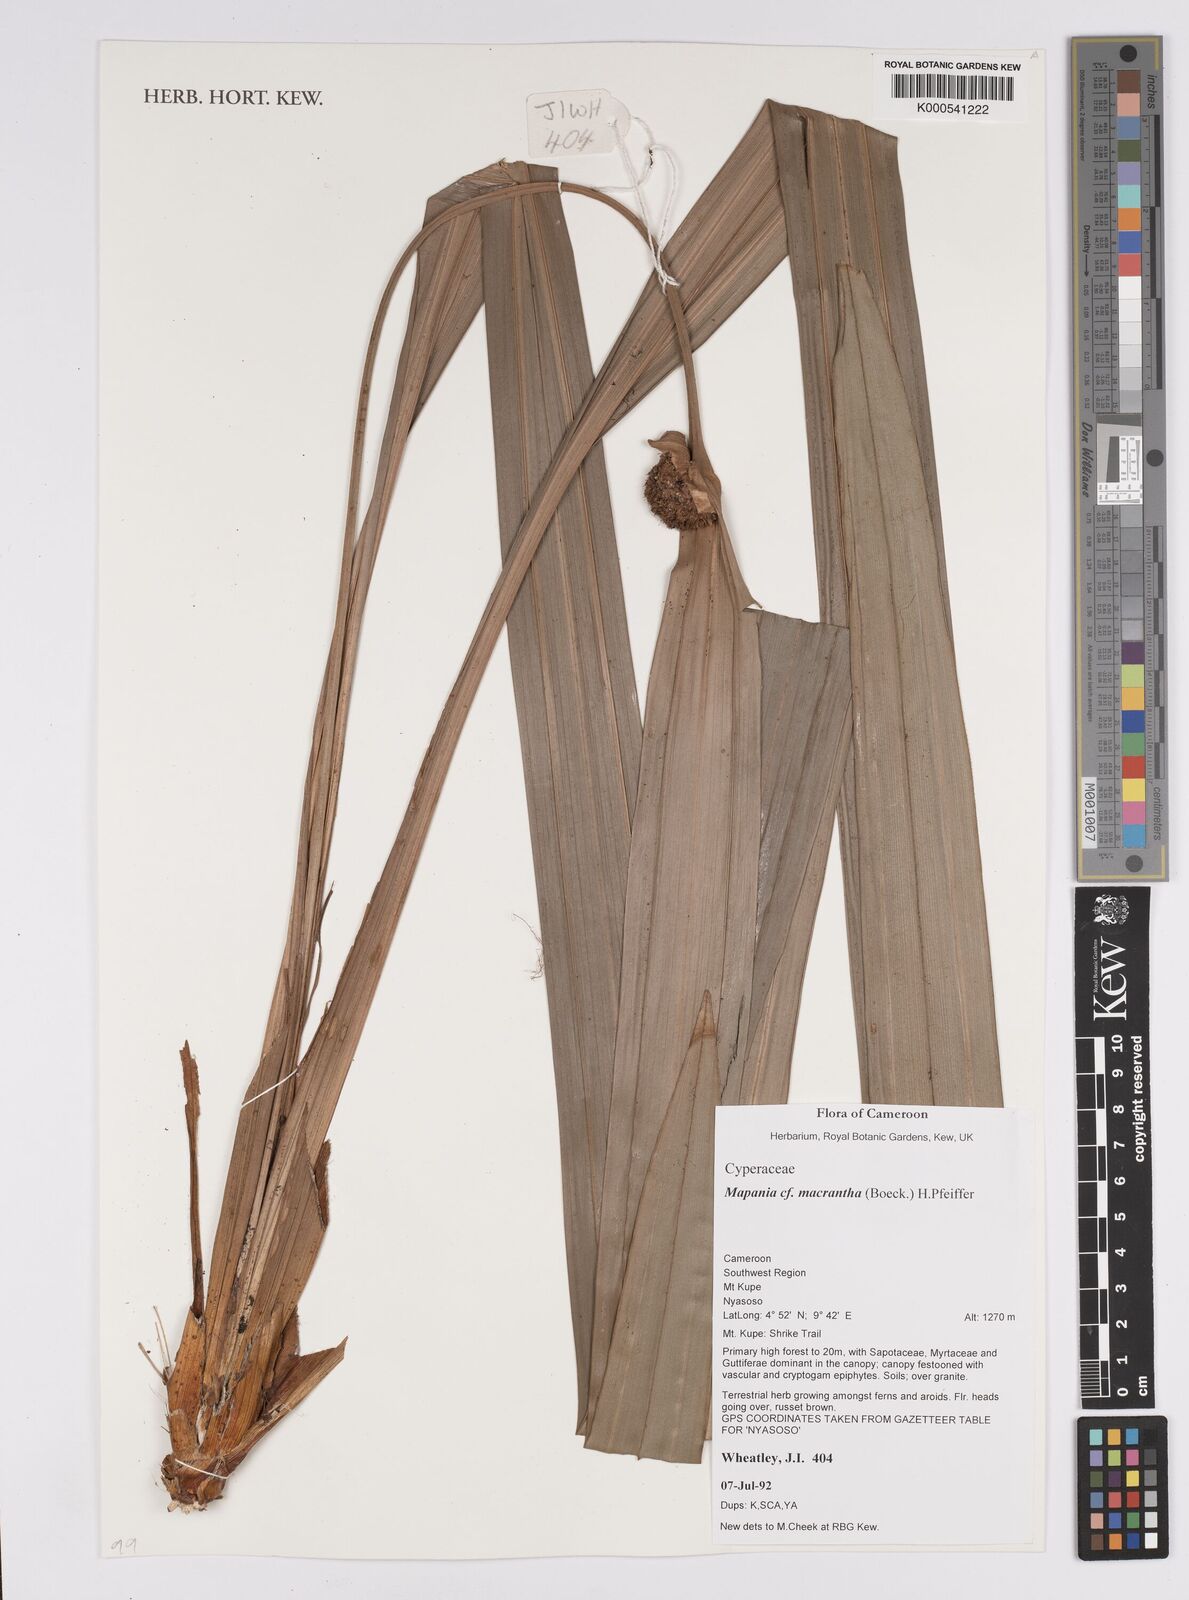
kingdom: Plantae
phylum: Tracheophyta
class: Liliopsida
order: Poales
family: Cyperaceae
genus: Mapania
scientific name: Mapania macrantha
